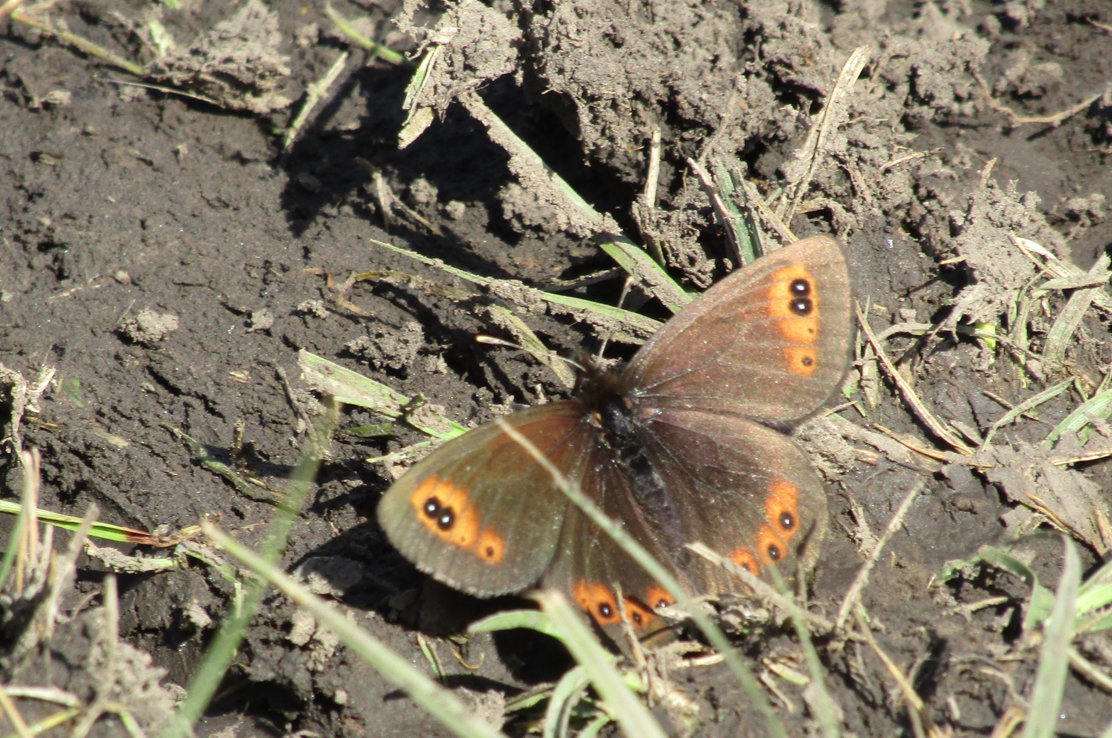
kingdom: Animalia
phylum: Arthropoda
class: Insecta
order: Lepidoptera
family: Nymphalidae
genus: Erebia
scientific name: Erebia epipsodea
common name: Common Alpine
